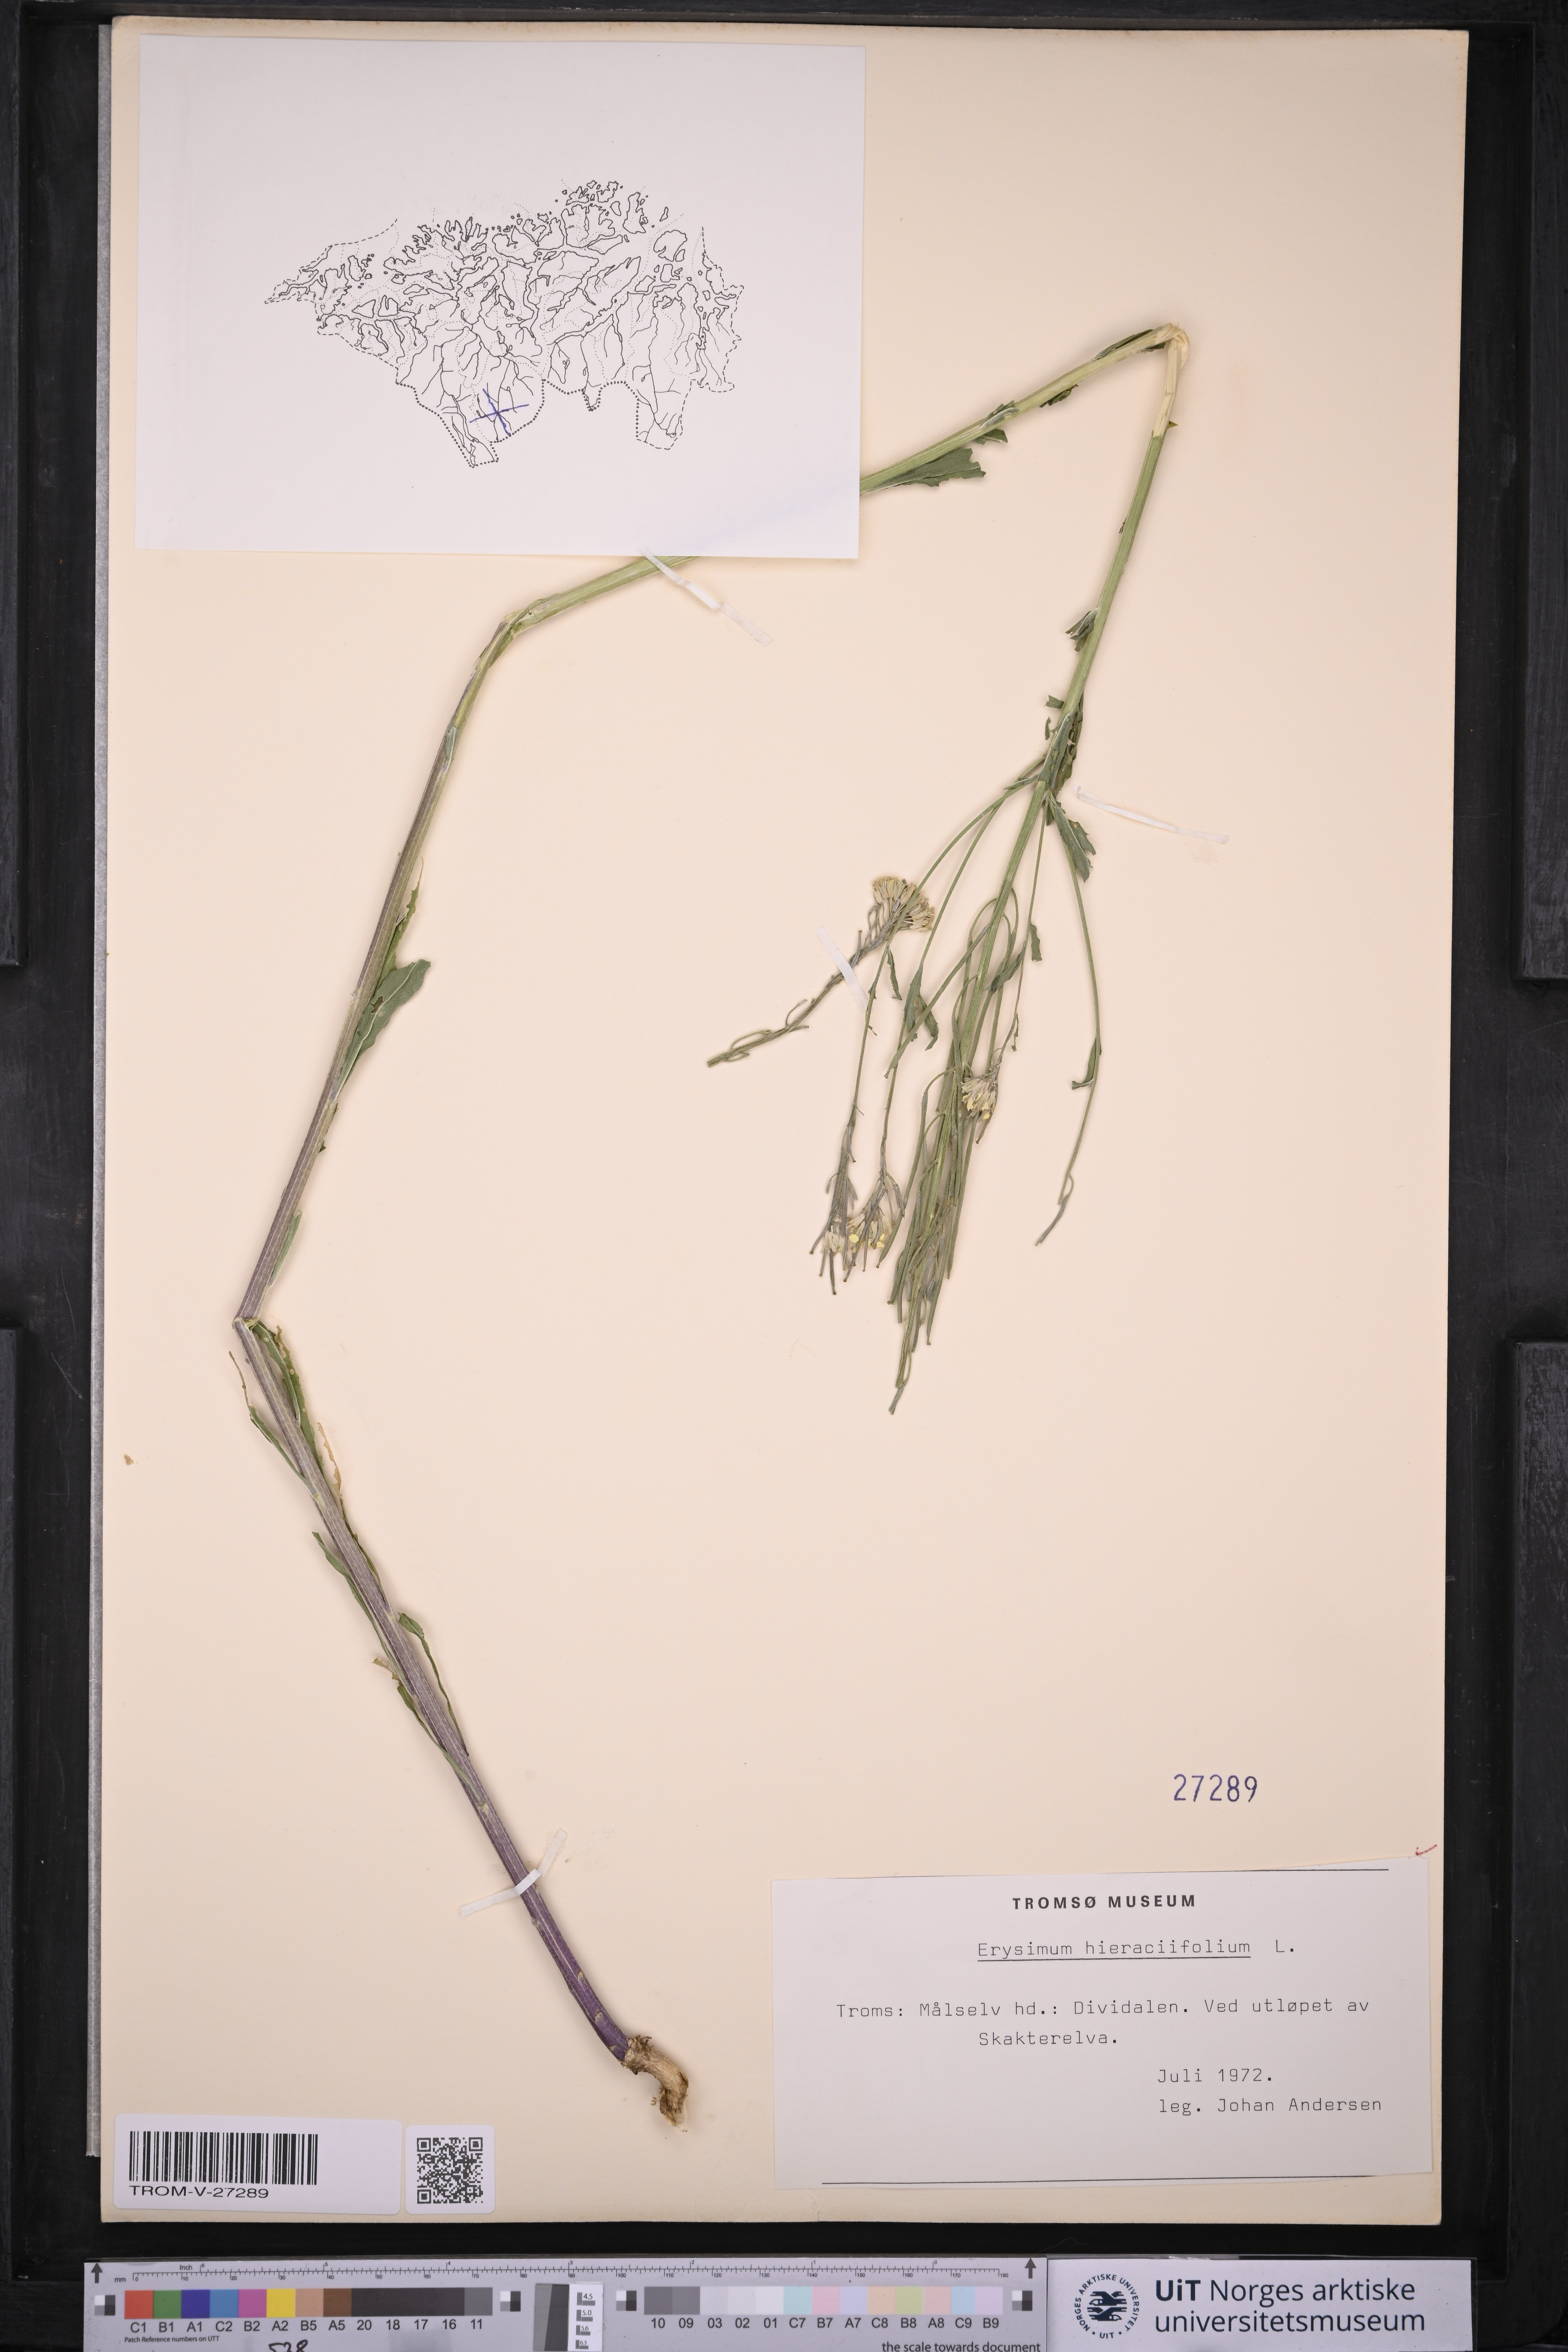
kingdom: Plantae
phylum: Tracheophyta
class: Magnoliopsida
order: Brassicales
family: Brassicaceae
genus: Erysimum
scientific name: Erysimum virgatum
